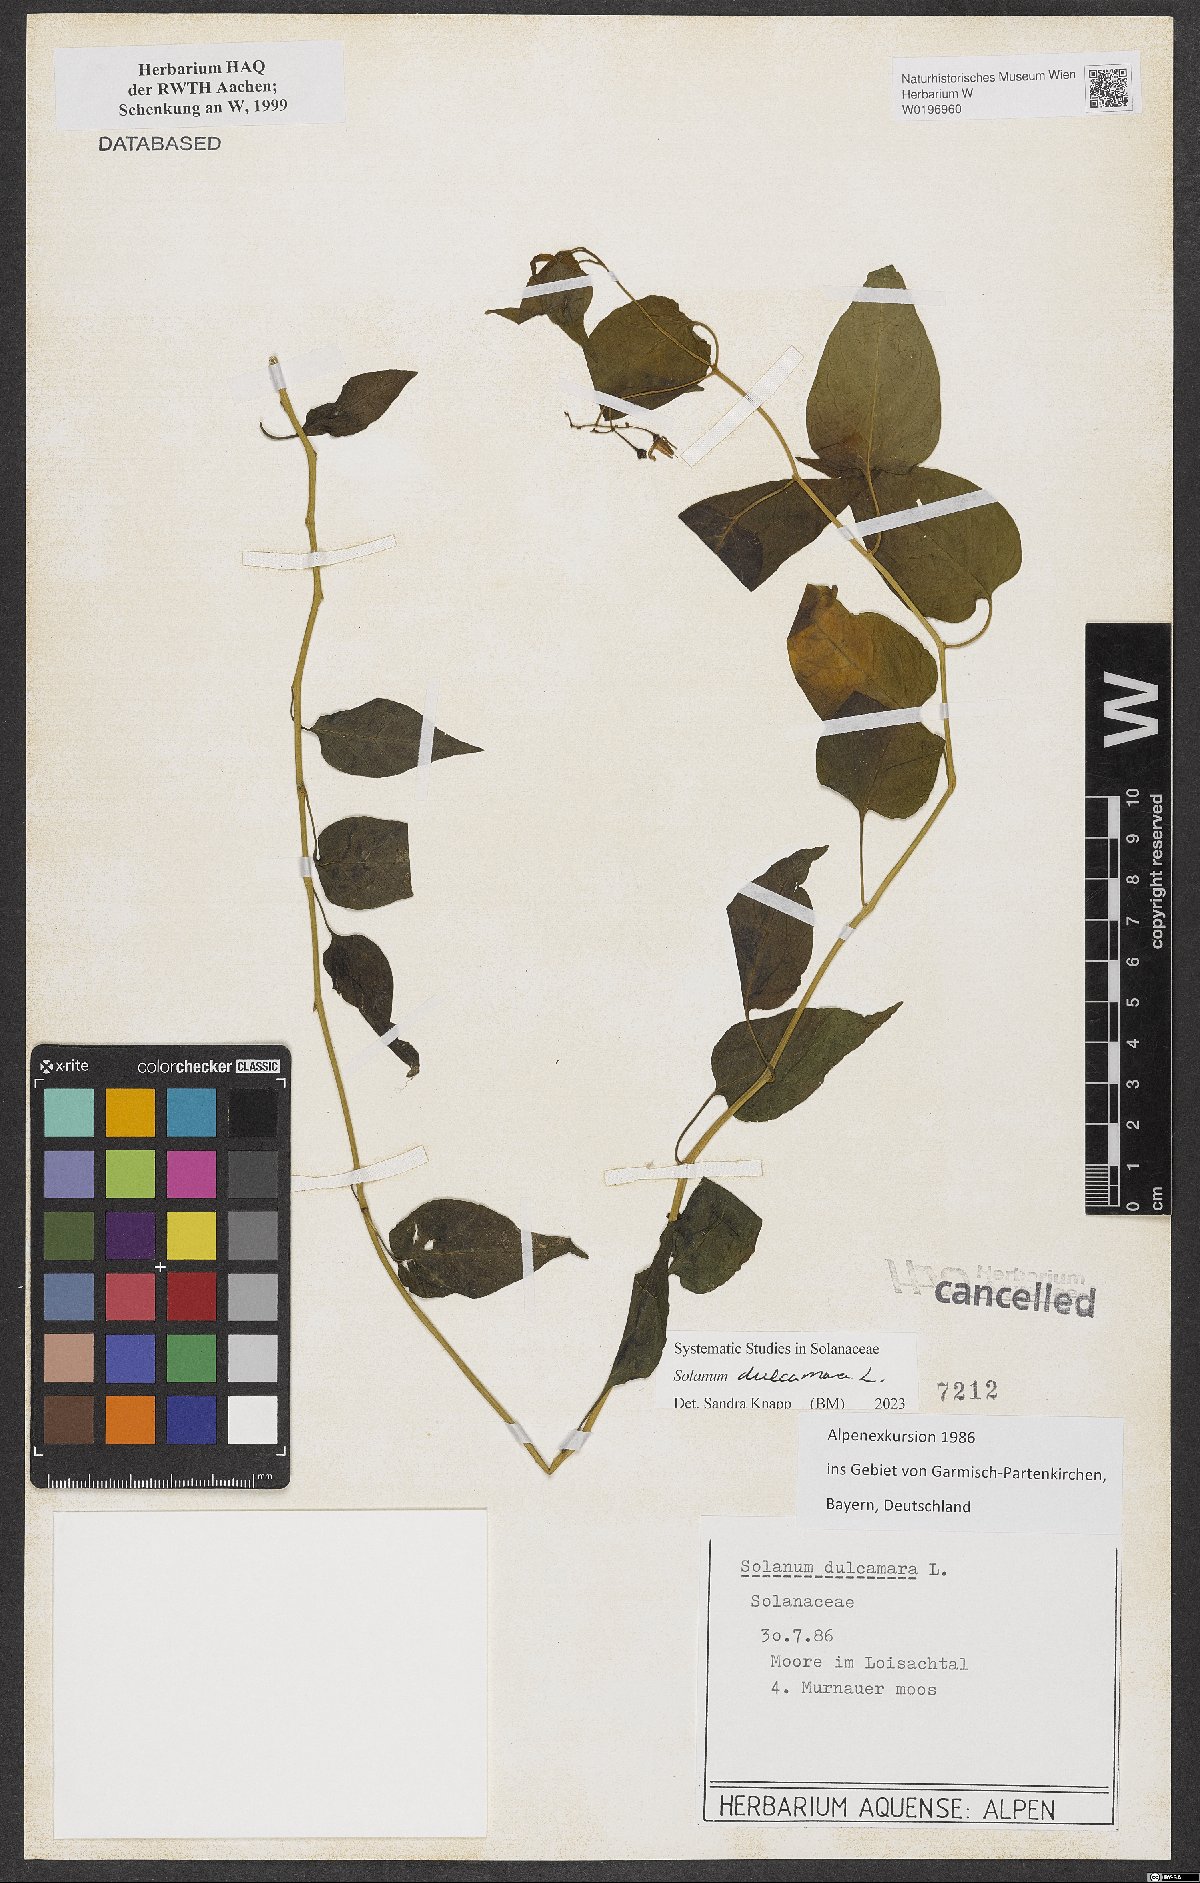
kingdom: Plantae
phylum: Tracheophyta
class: Magnoliopsida
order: Solanales
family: Solanaceae
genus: Solanum
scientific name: Solanum dulcamara
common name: Climbing nightshade
